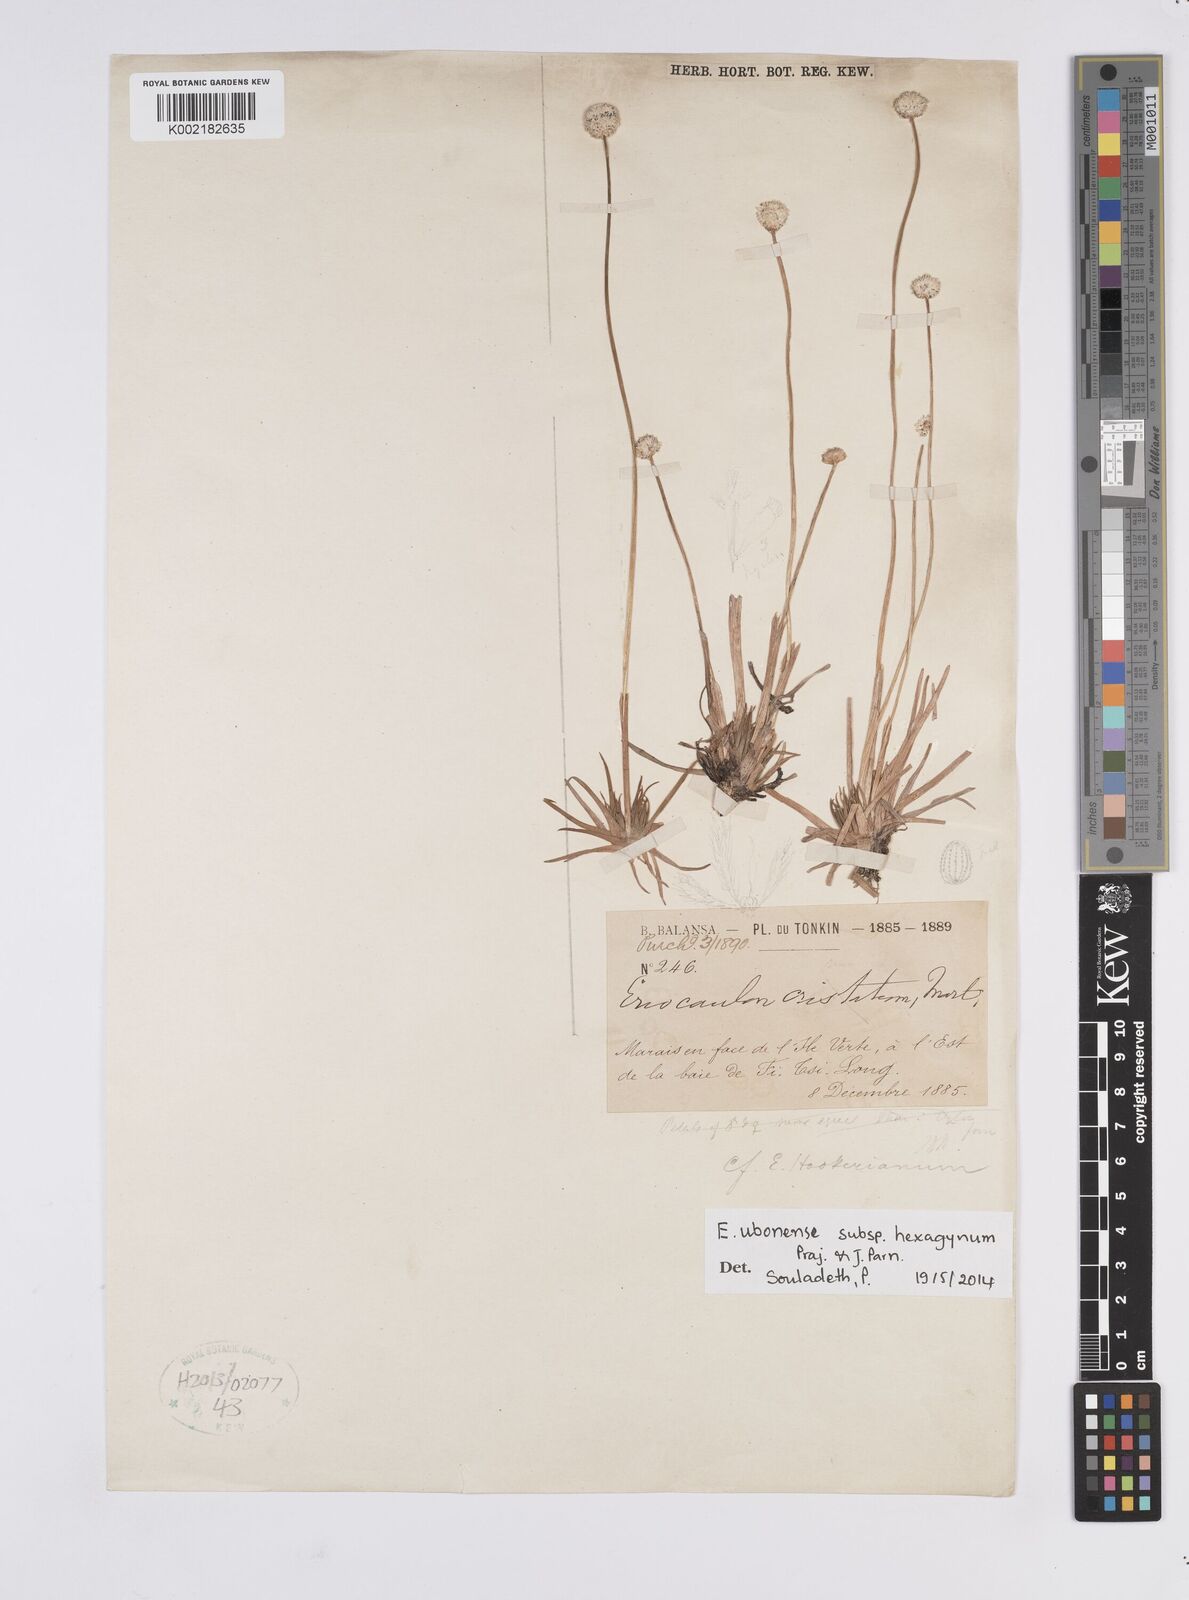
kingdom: Plantae
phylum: Tracheophyta
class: Liliopsida
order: Poales
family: Eriocaulaceae
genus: Eriocaulon
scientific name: Eriocaulon ubonense
